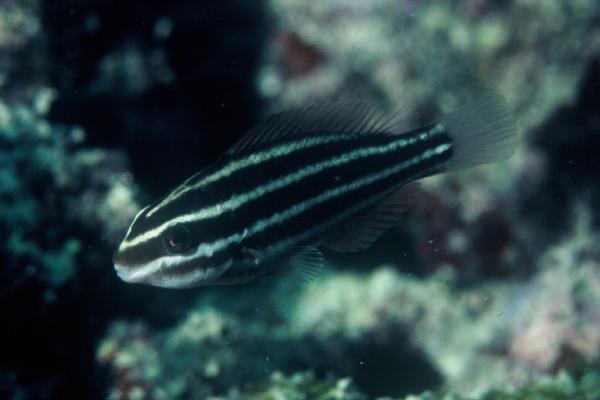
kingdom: Animalia
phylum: Chordata
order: Perciformes
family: Scaridae
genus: Chlorurus
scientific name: Chlorurus sordidus
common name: Bullethead parrotfish
